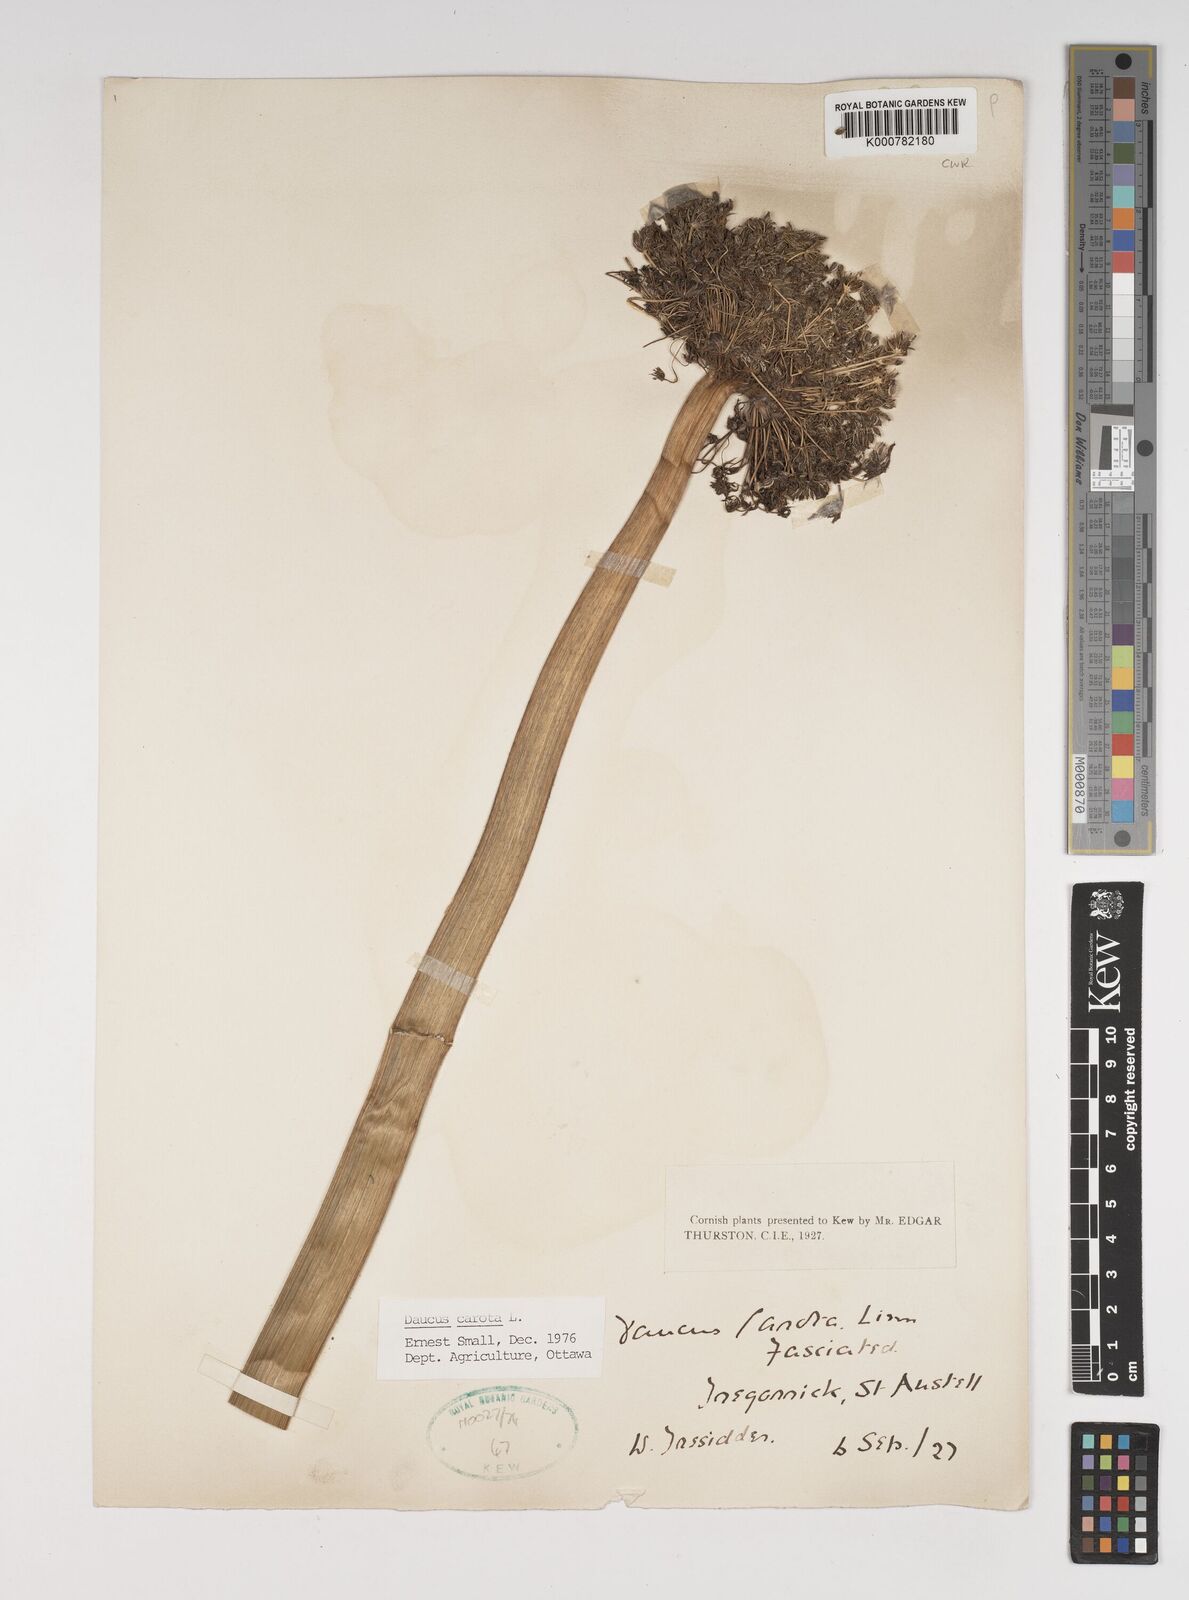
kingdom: Plantae
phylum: Tracheophyta
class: Magnoliopsida
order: Apiales
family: Apiaceae
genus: Daucus
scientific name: Daucus carota
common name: Wild carrot
